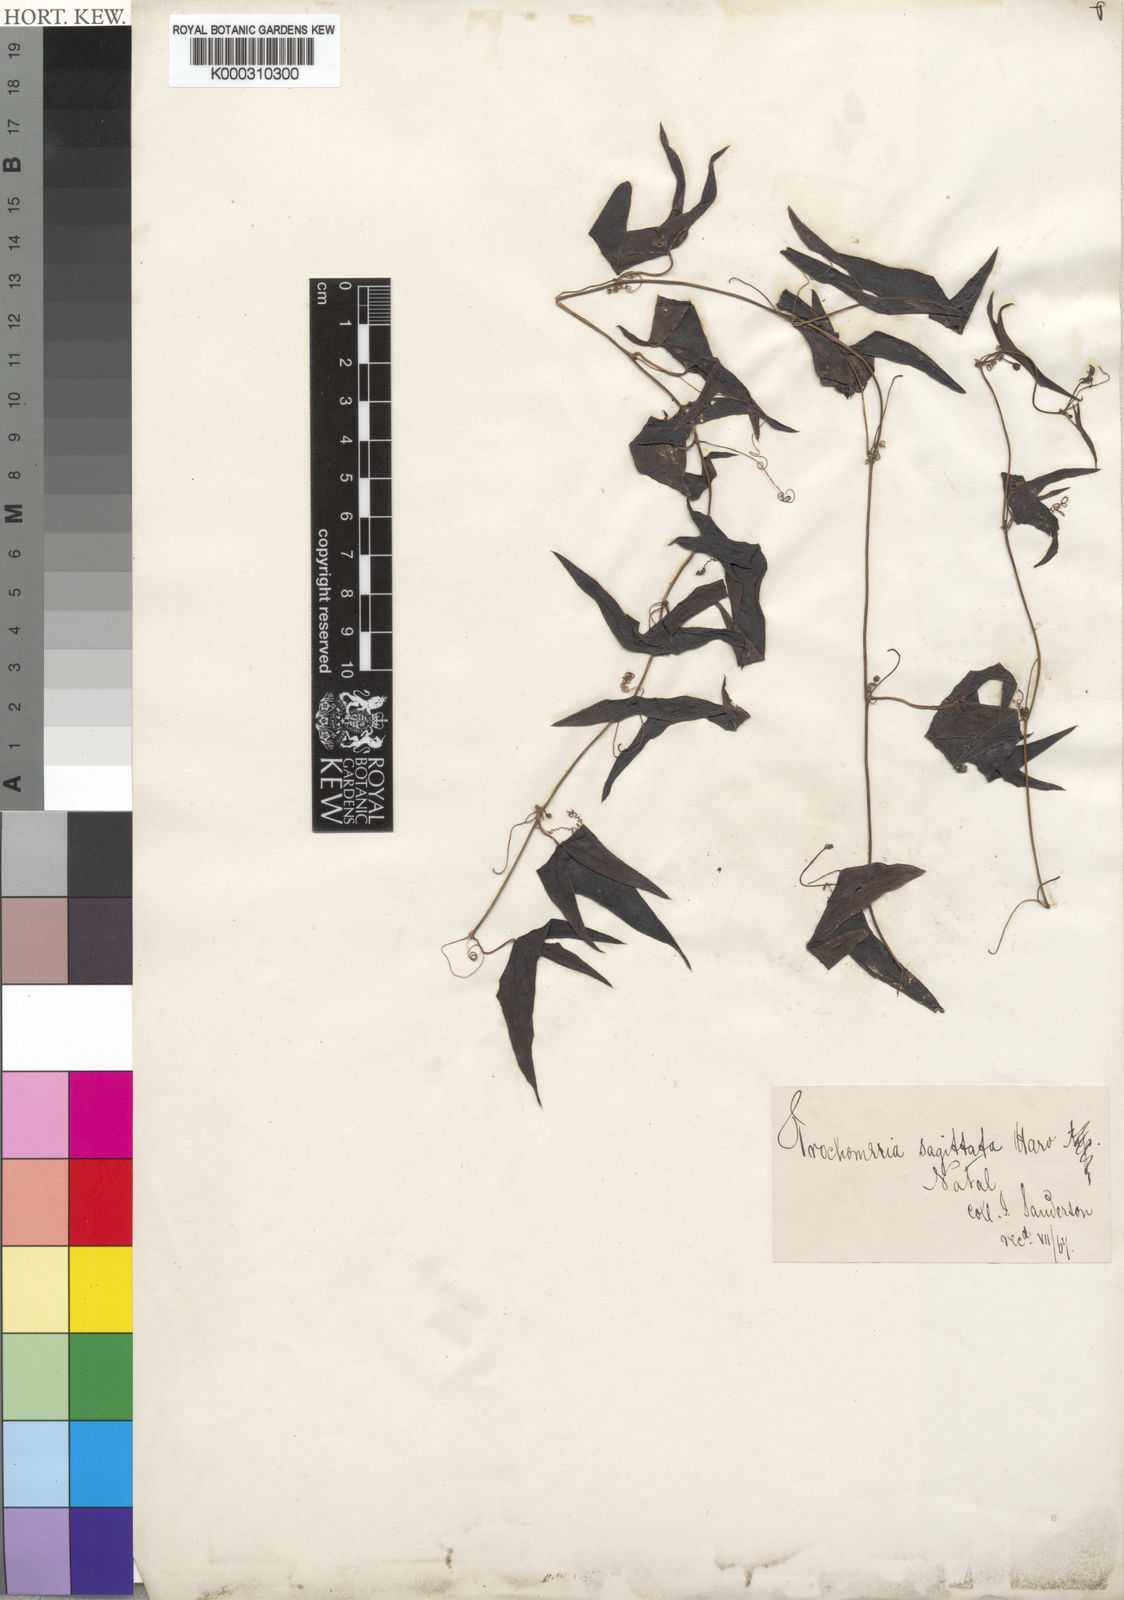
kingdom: Plantae
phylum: Tracheophyta
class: Magnoliopsida
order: Cucurbitales
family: Cucurbitaceae
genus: Trochomeria
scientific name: Trochomeria sagittata
